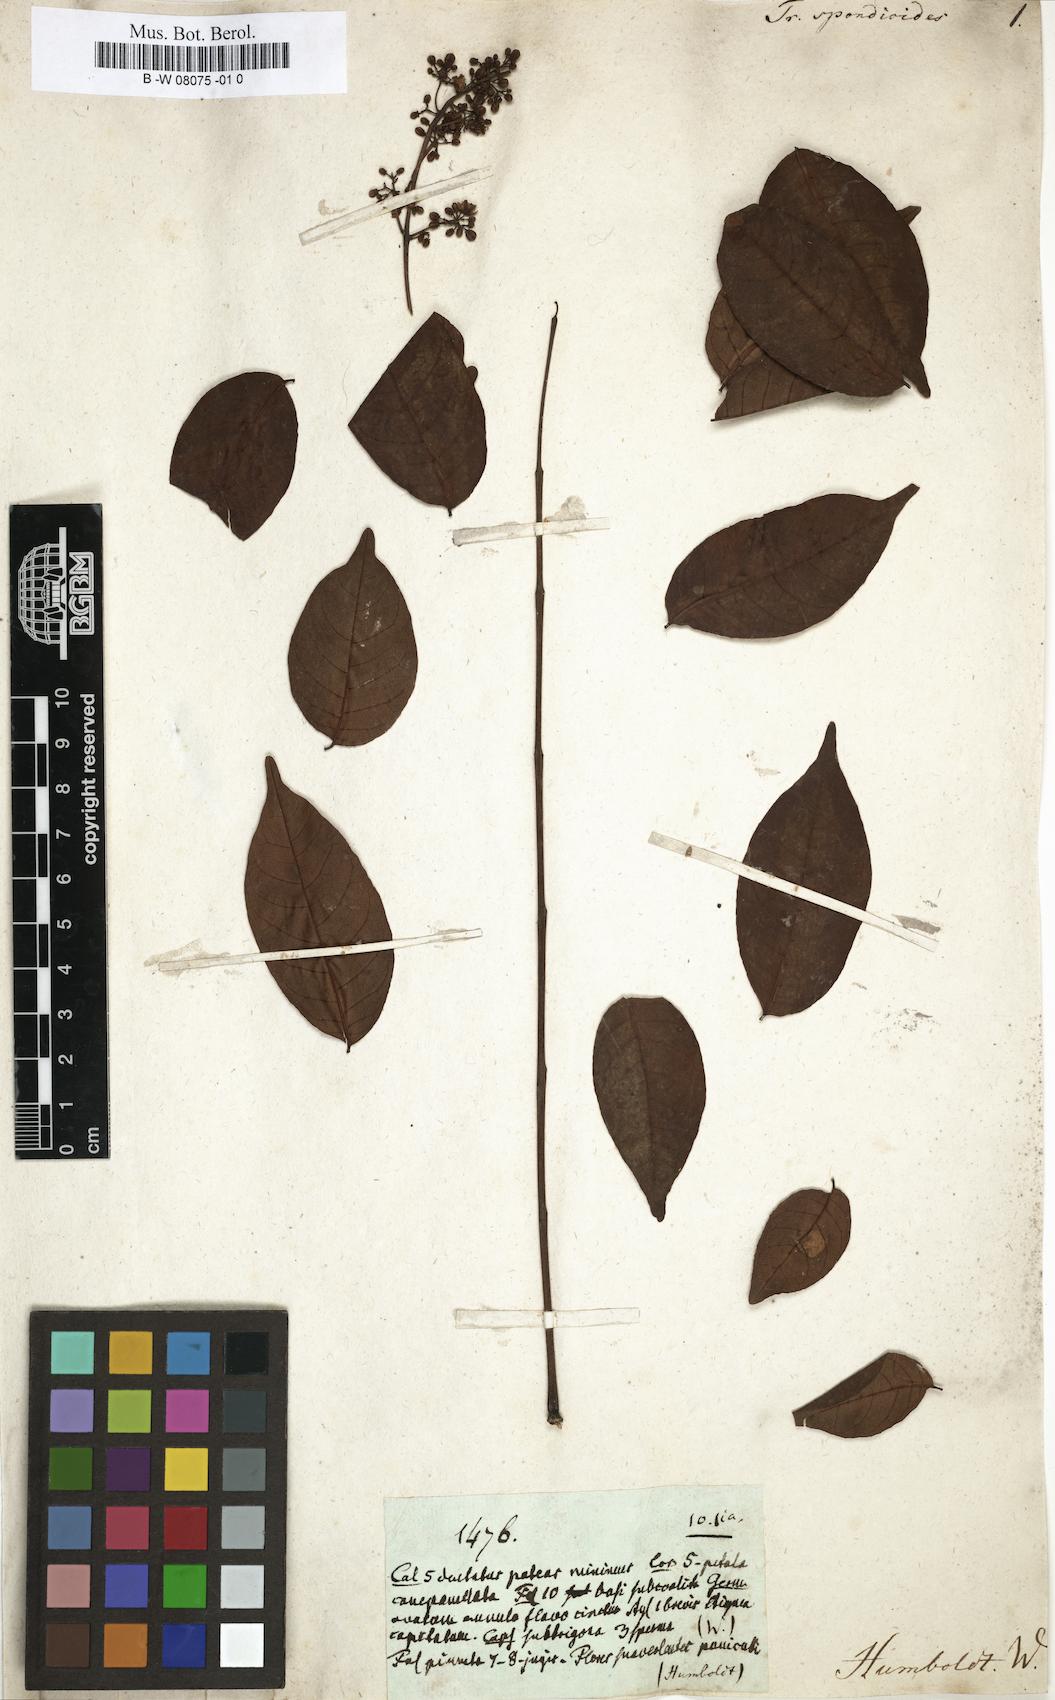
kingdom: Plantae
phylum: Tracheophyta
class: Magnoliopsida
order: Sapindales
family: Meliaceae
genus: Trichilia
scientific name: Trichilia hirta
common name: Red-cedar
